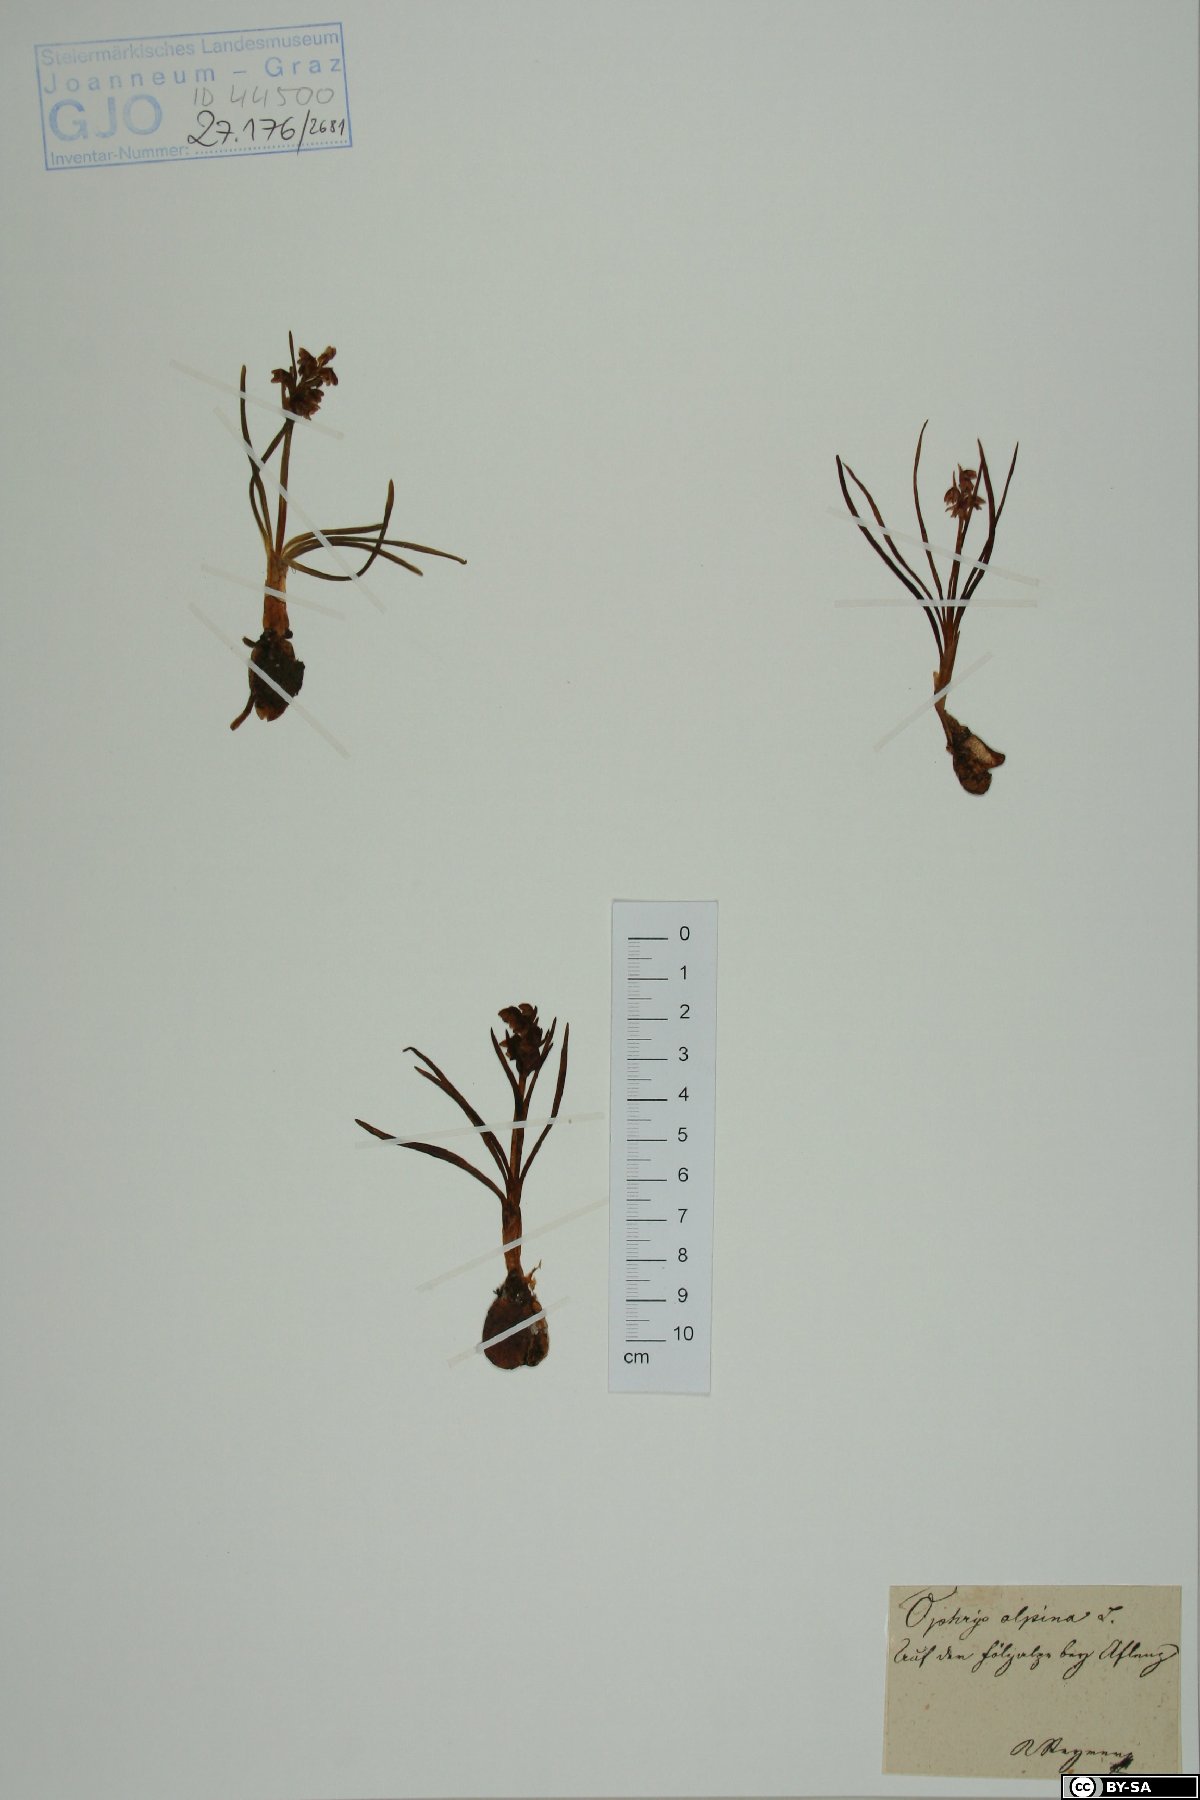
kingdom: Plantae
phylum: Tracheophyta
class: Liliopsida
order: Asparagales
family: Orchidaceae
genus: Chamorchis
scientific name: Chamorchis alpina
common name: Alpine chamorchis
